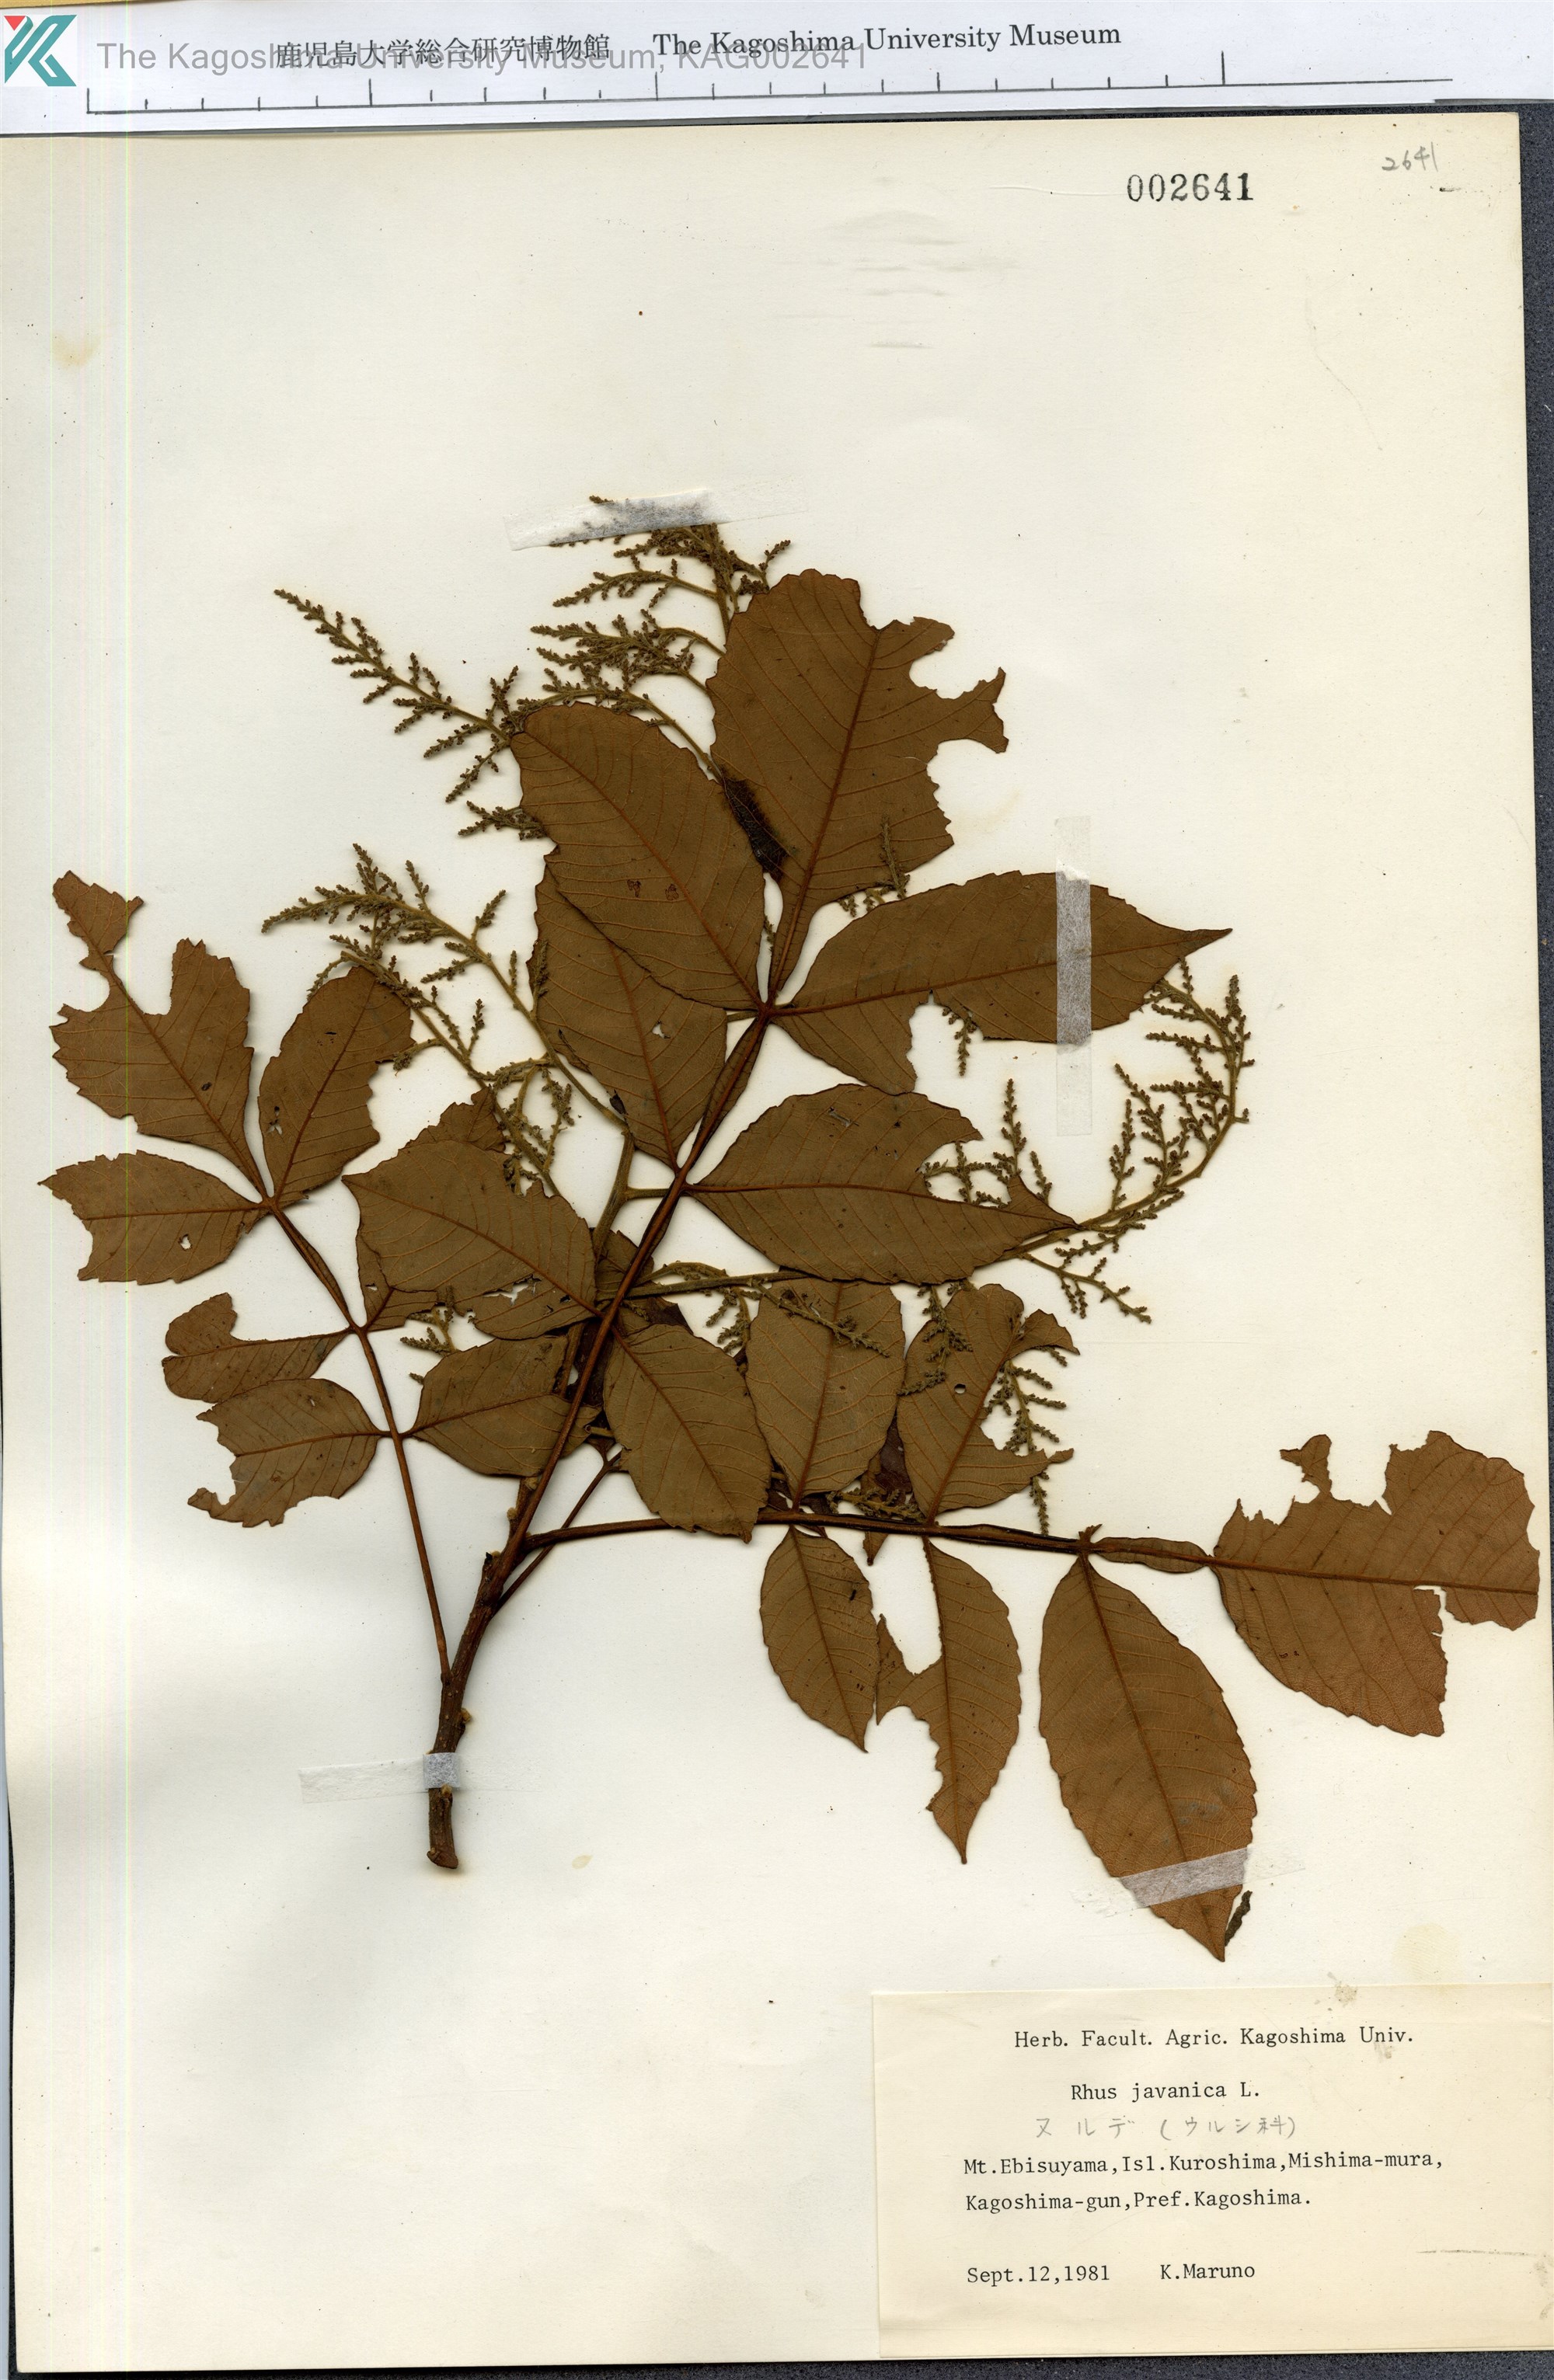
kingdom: Plantae
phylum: Tracheophyta
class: Magnoliopsida
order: Sapindales
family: Simaroubaceae
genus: Brucea
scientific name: Brucea javanica
